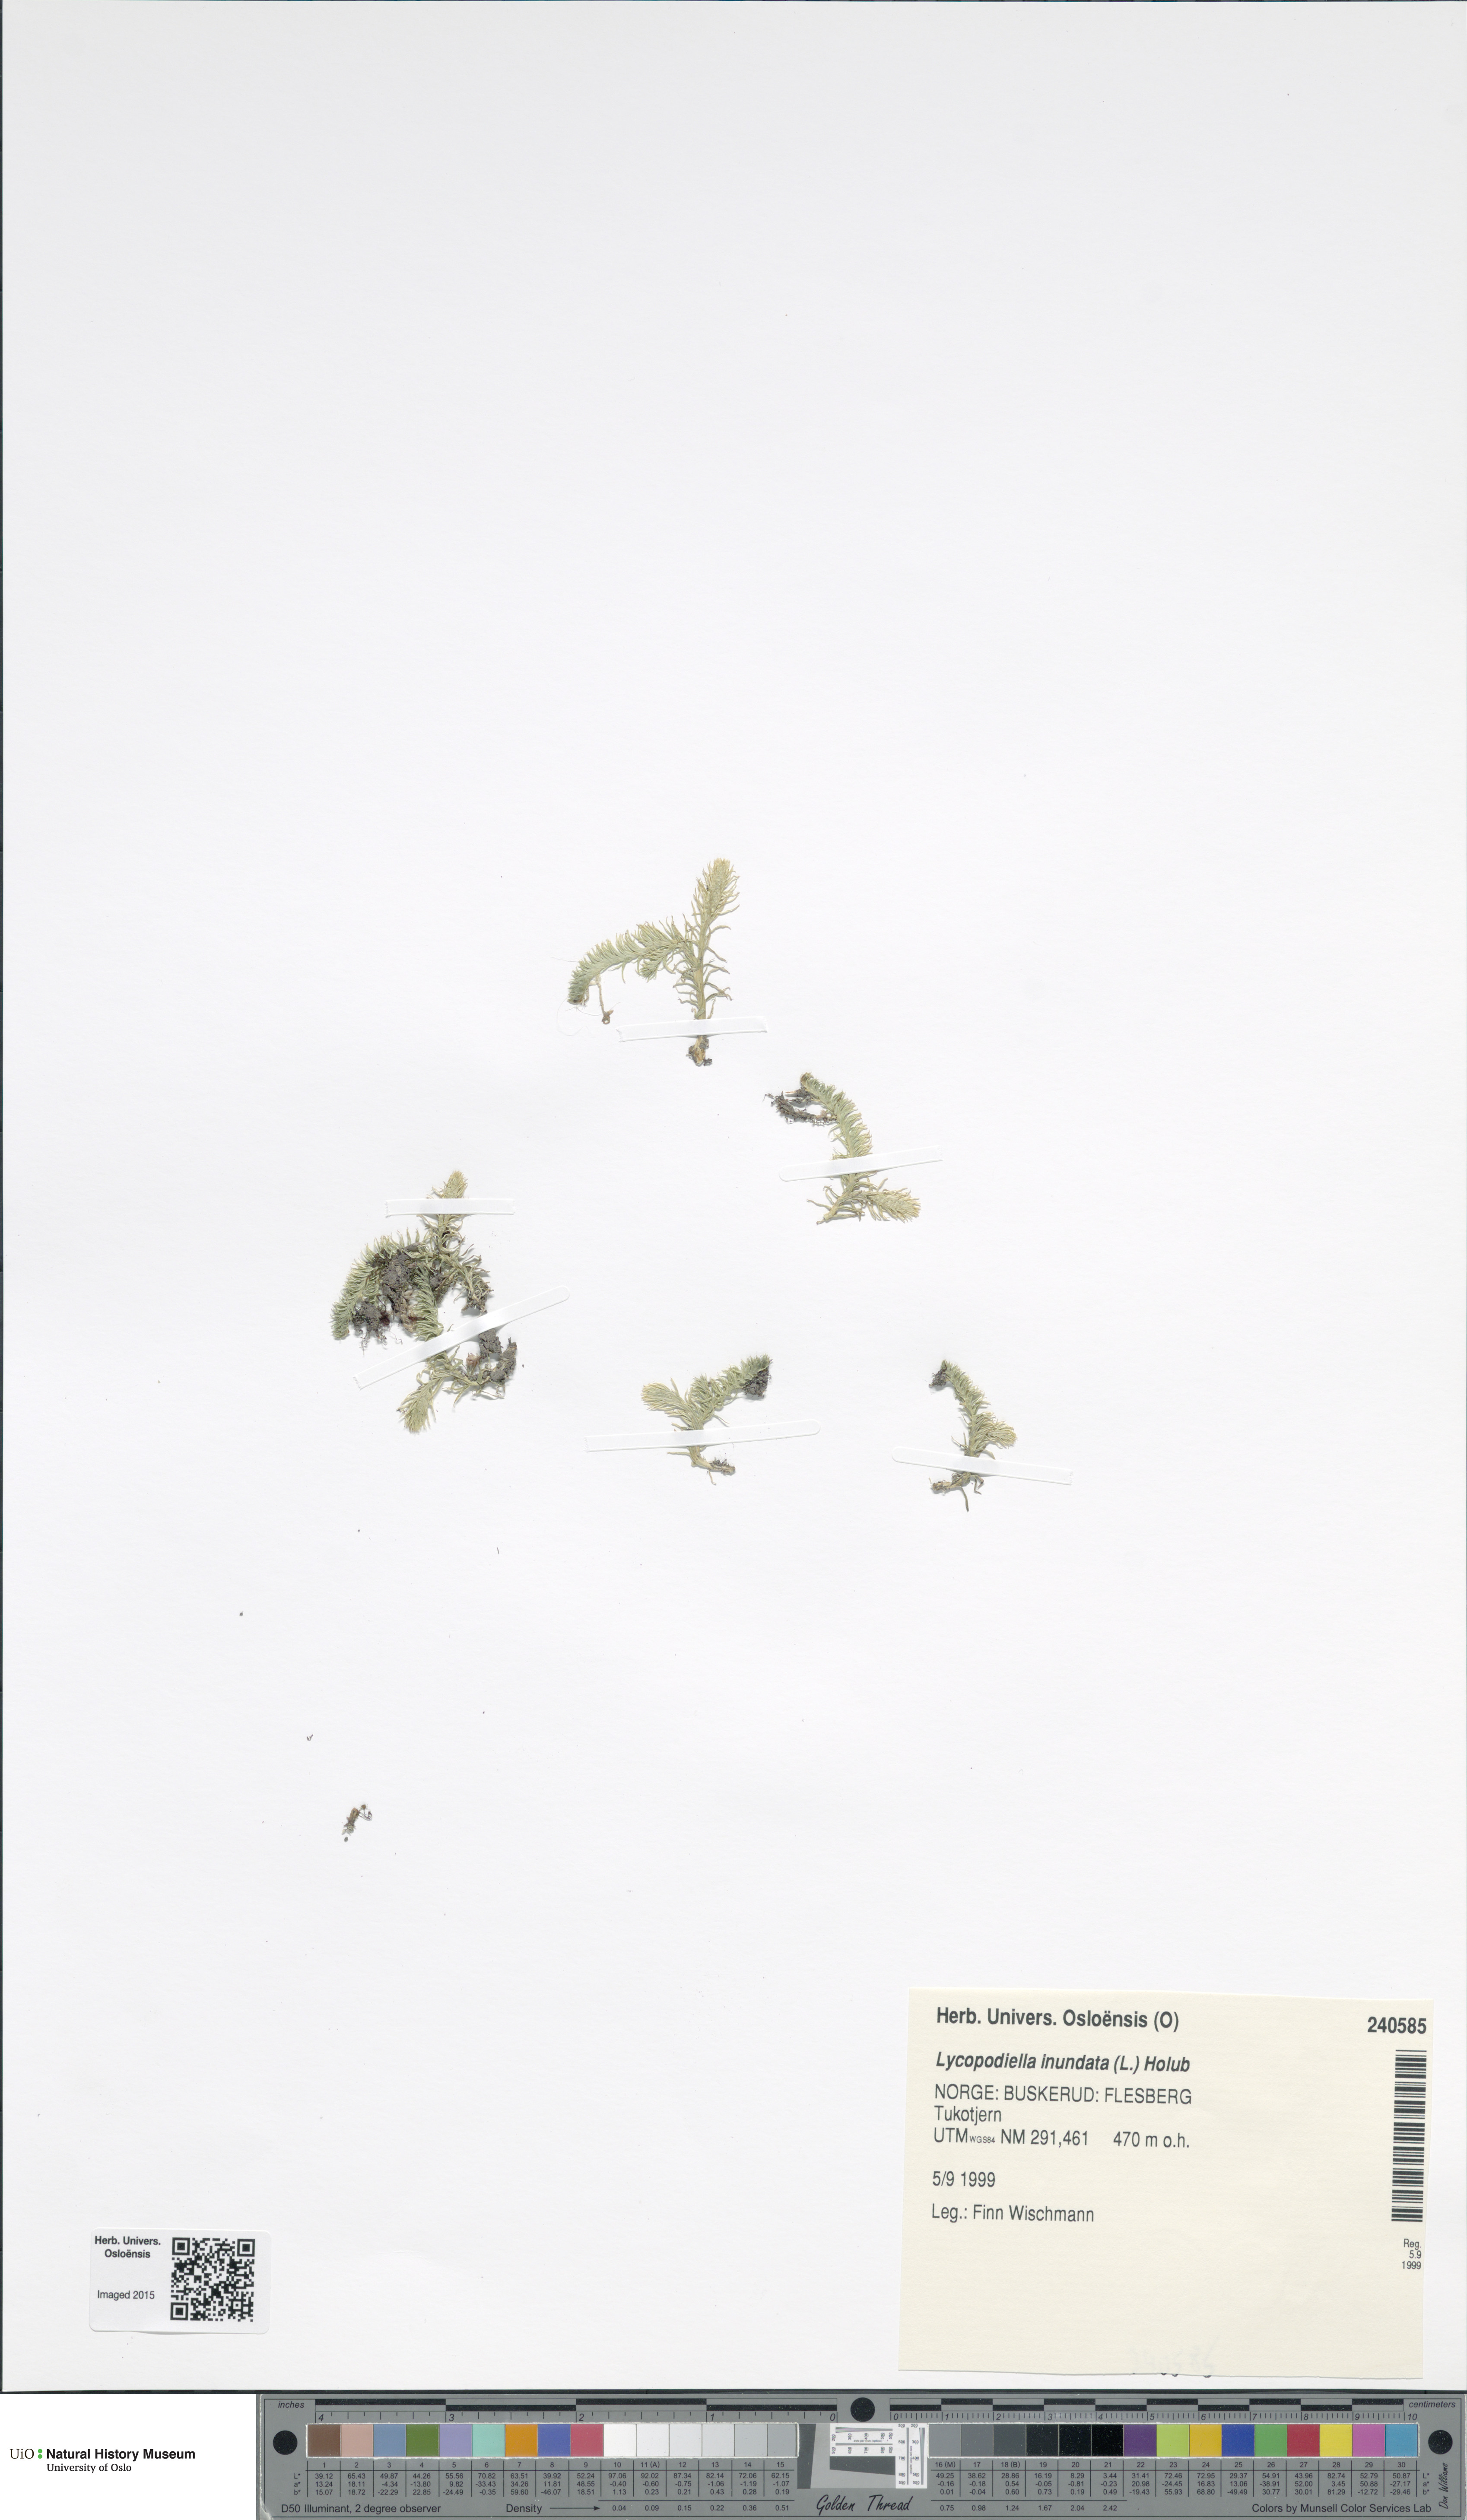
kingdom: Plantae
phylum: Tracheophyta
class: Lycopodiopsida
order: Lycopodiales
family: Lycopodiaceae
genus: Lycopodiella
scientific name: Lycopodiella inundata
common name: Marsh clubmoss
